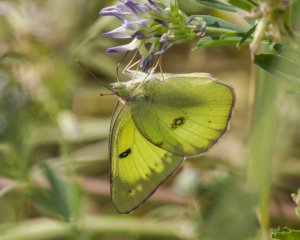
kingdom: Animalia
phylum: Arthropoda
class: Insecta
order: Lepidoptera
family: Pieridae
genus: Colias
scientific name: Colias philodice
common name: Clouded Sulphur
